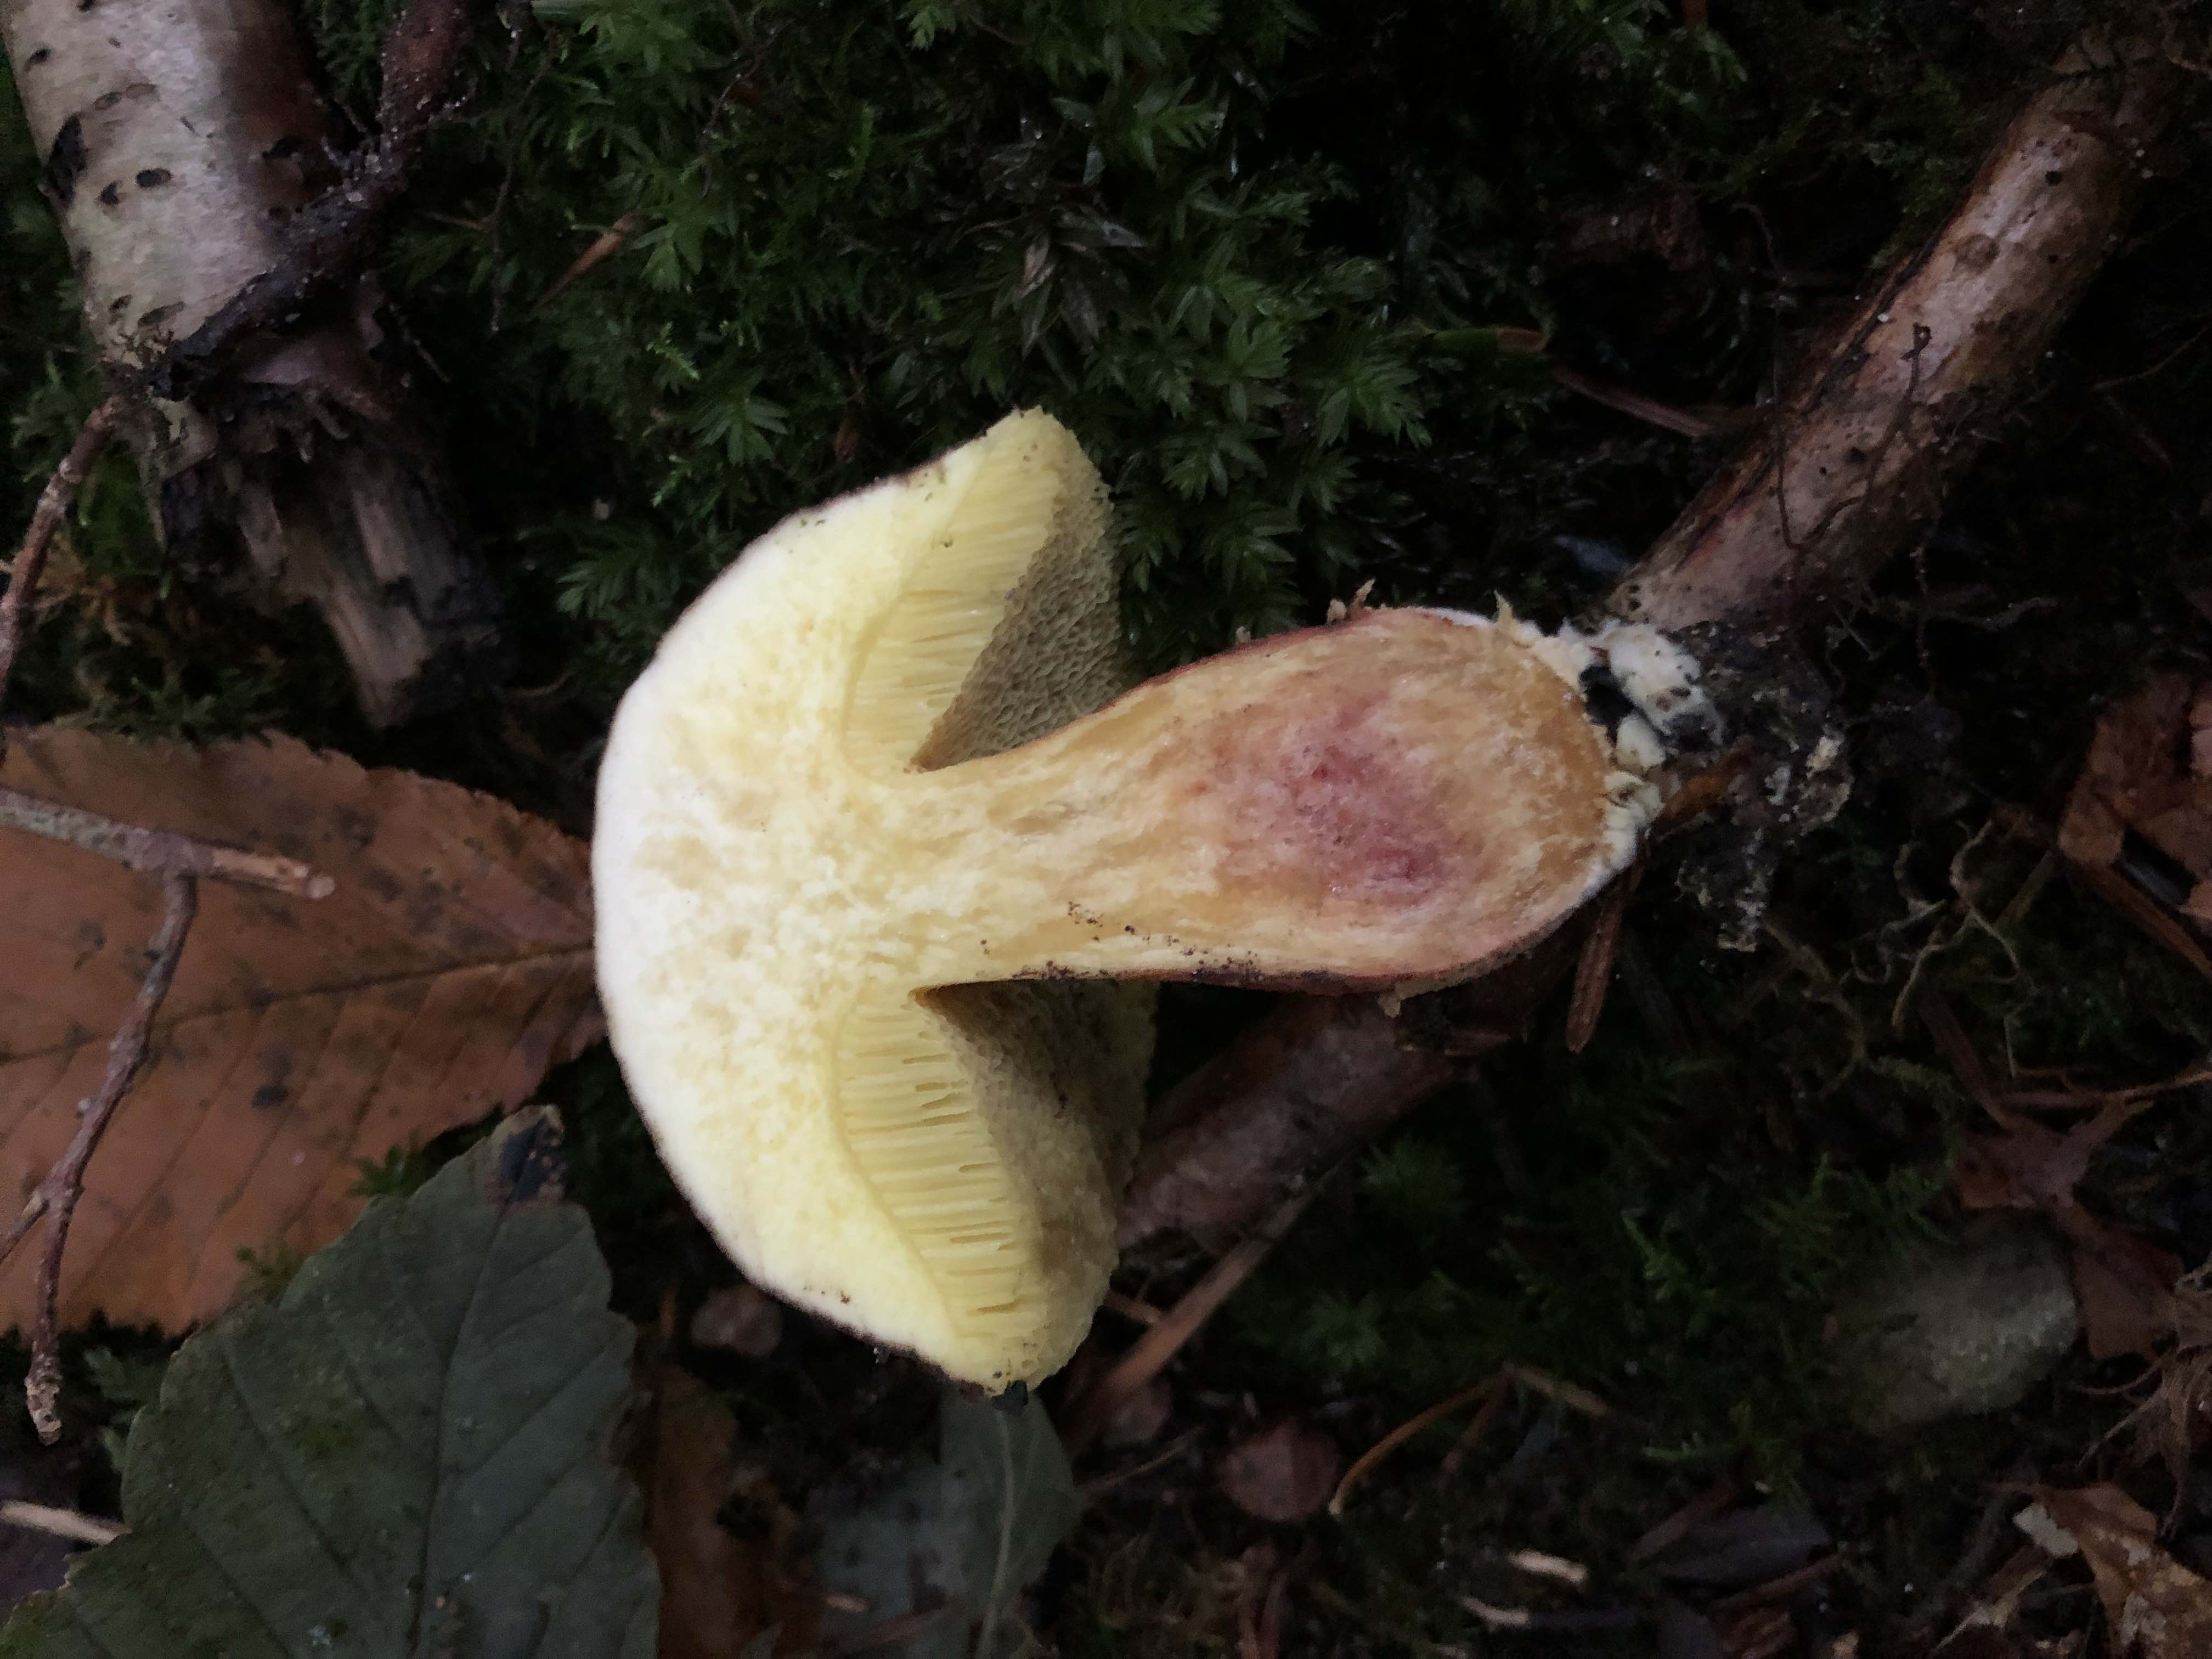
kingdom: Fungi
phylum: Basidiomycota
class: Agaricomycetes
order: Boletales
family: Boletaceae
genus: Xerocomellus
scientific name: Xerocomellus
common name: dværgrørhat
